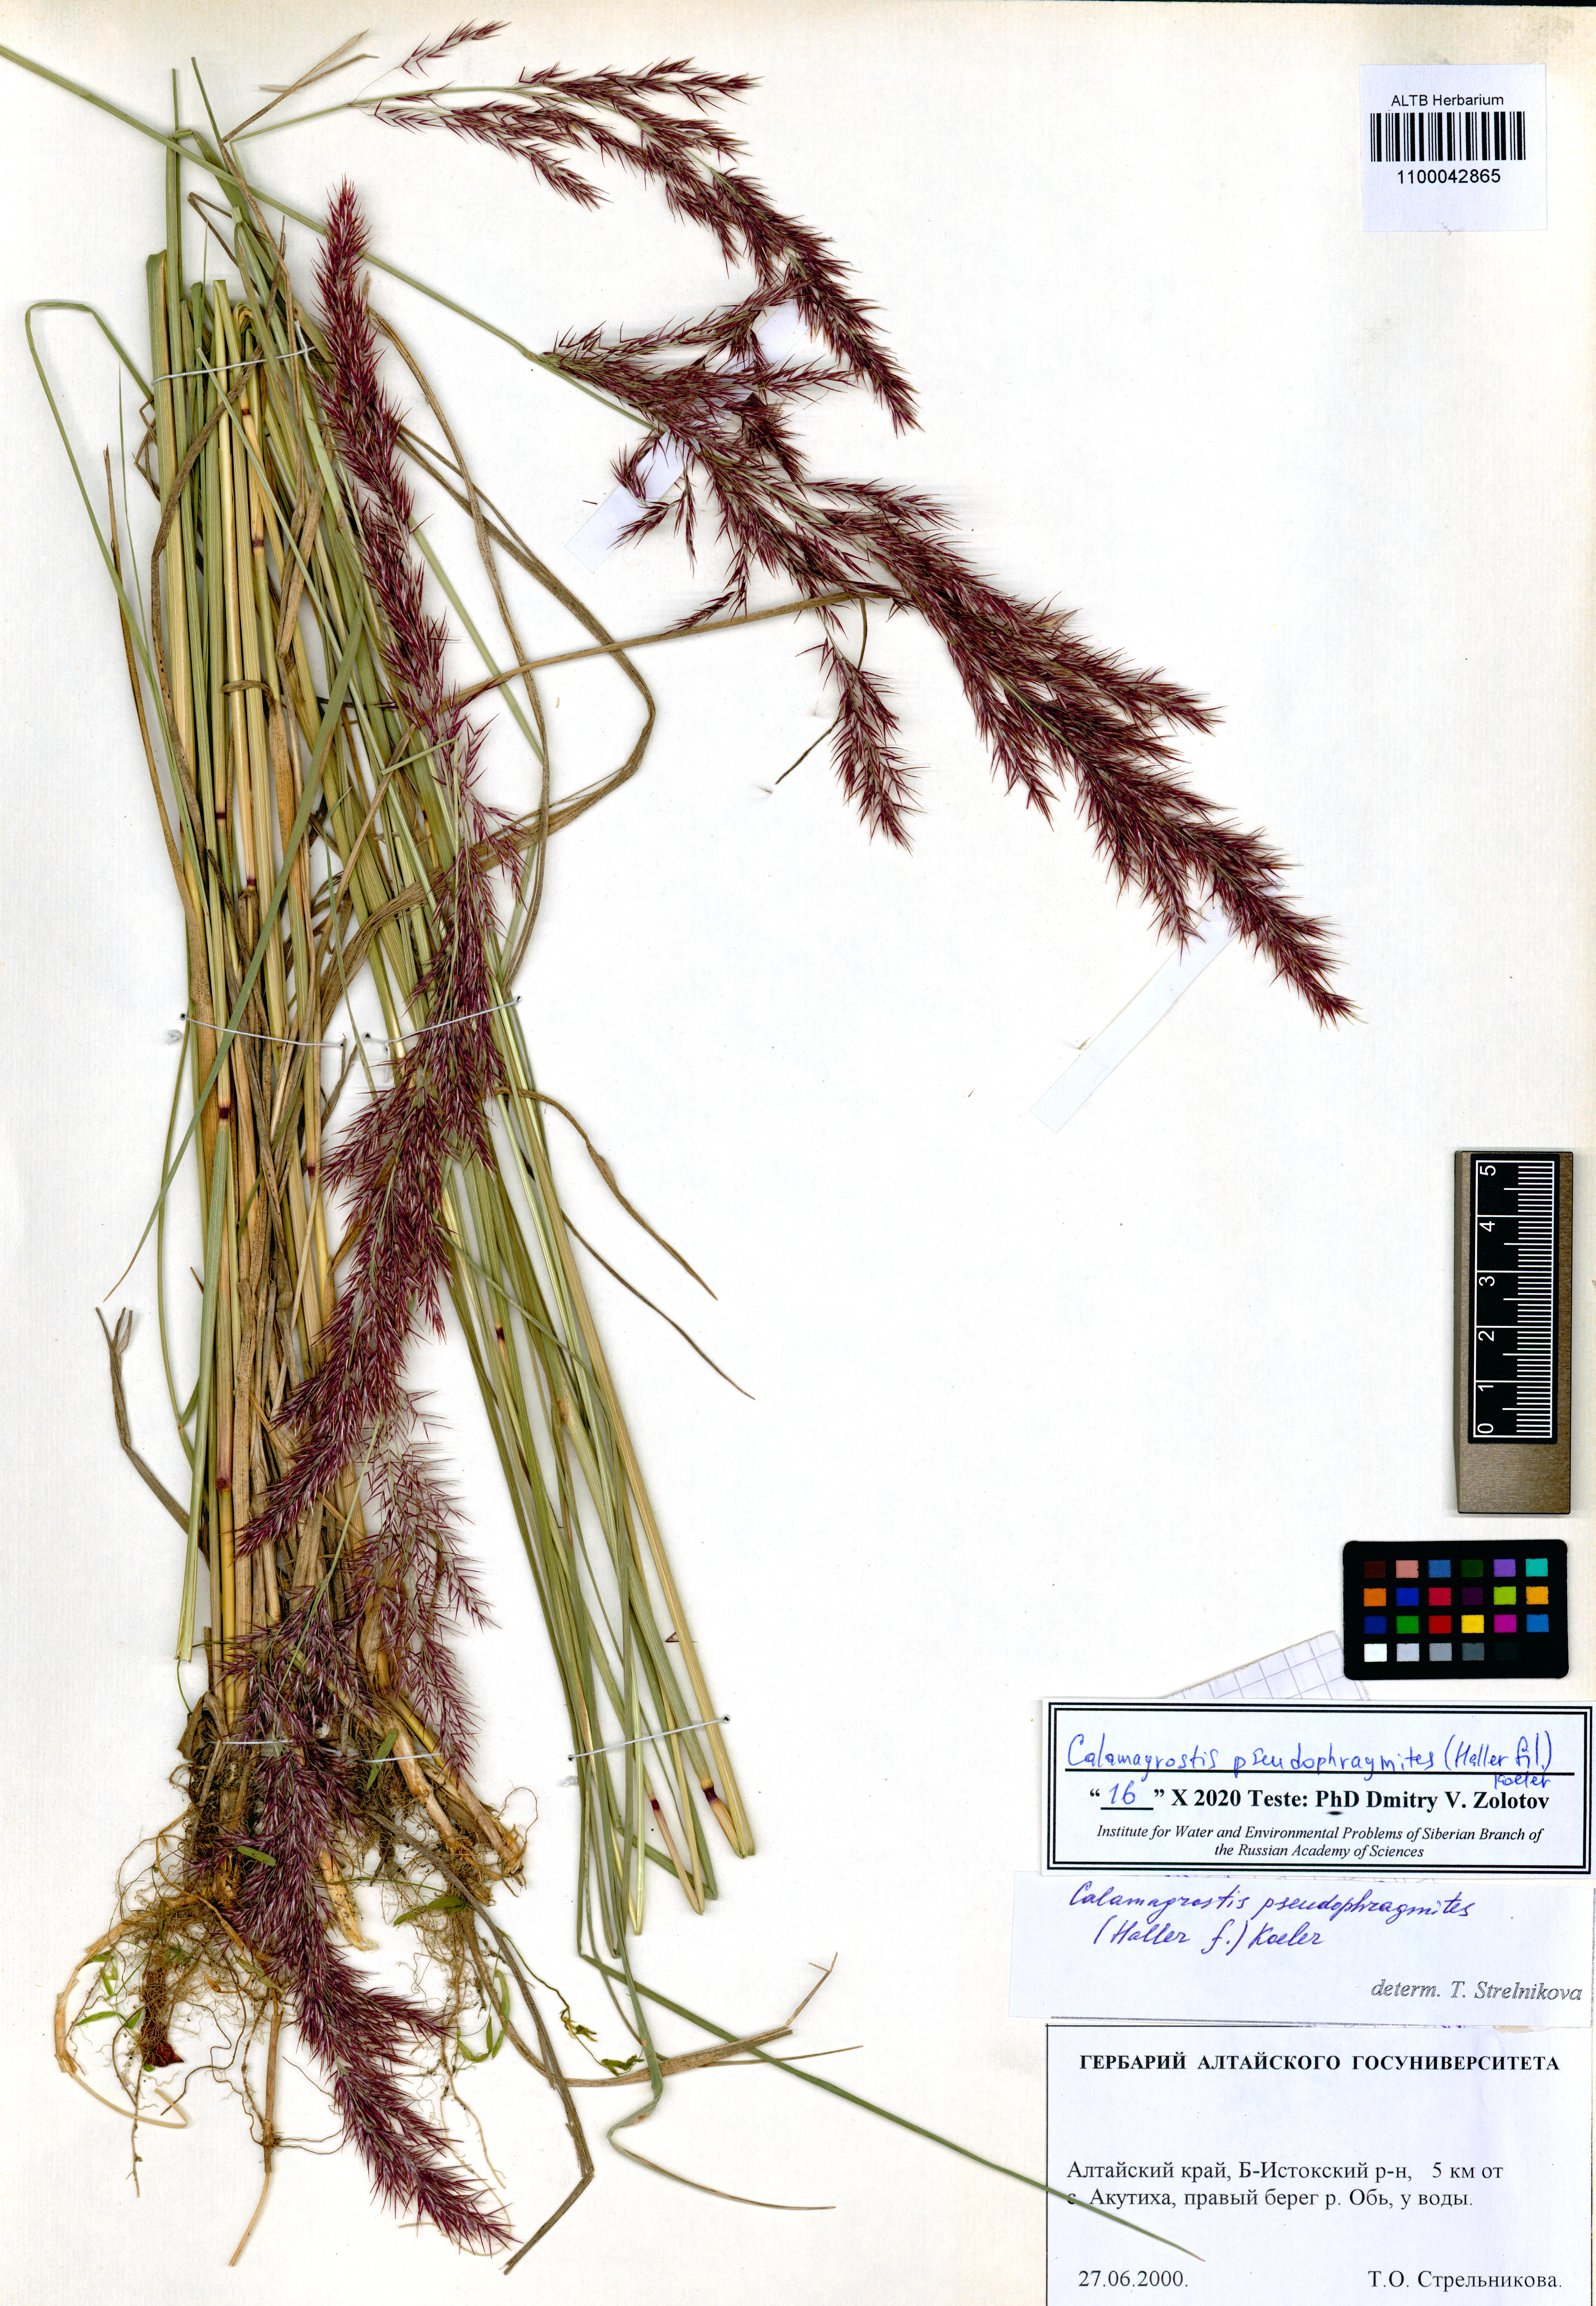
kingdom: Plantae
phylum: Tracheophyta
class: Liliopsida
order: Poales
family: Poaceae
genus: Calamagrostis
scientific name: Calamagrostis pseudophragmites
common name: Coastal small-reed
